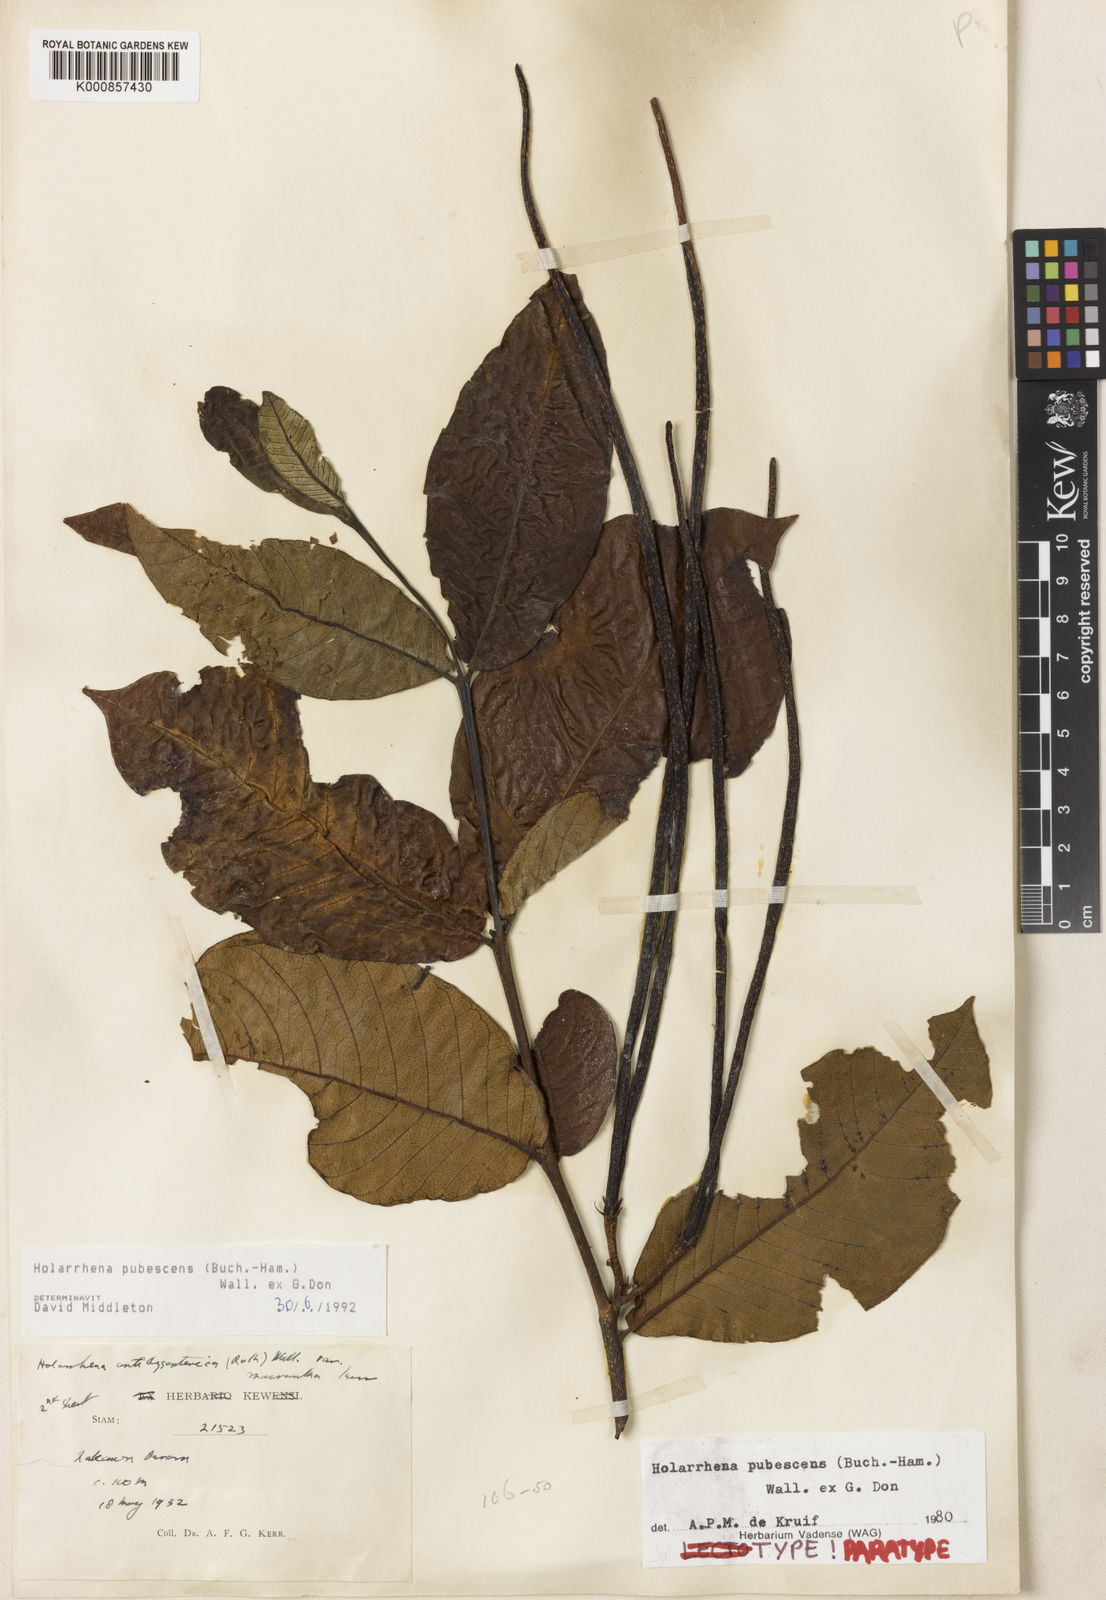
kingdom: Plantae
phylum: Tracheophyta
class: Magnoliopsida
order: Gentianales
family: Apocynaceae
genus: Holarrhena
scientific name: Holarrhena pubescens
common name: Bitter oleander
